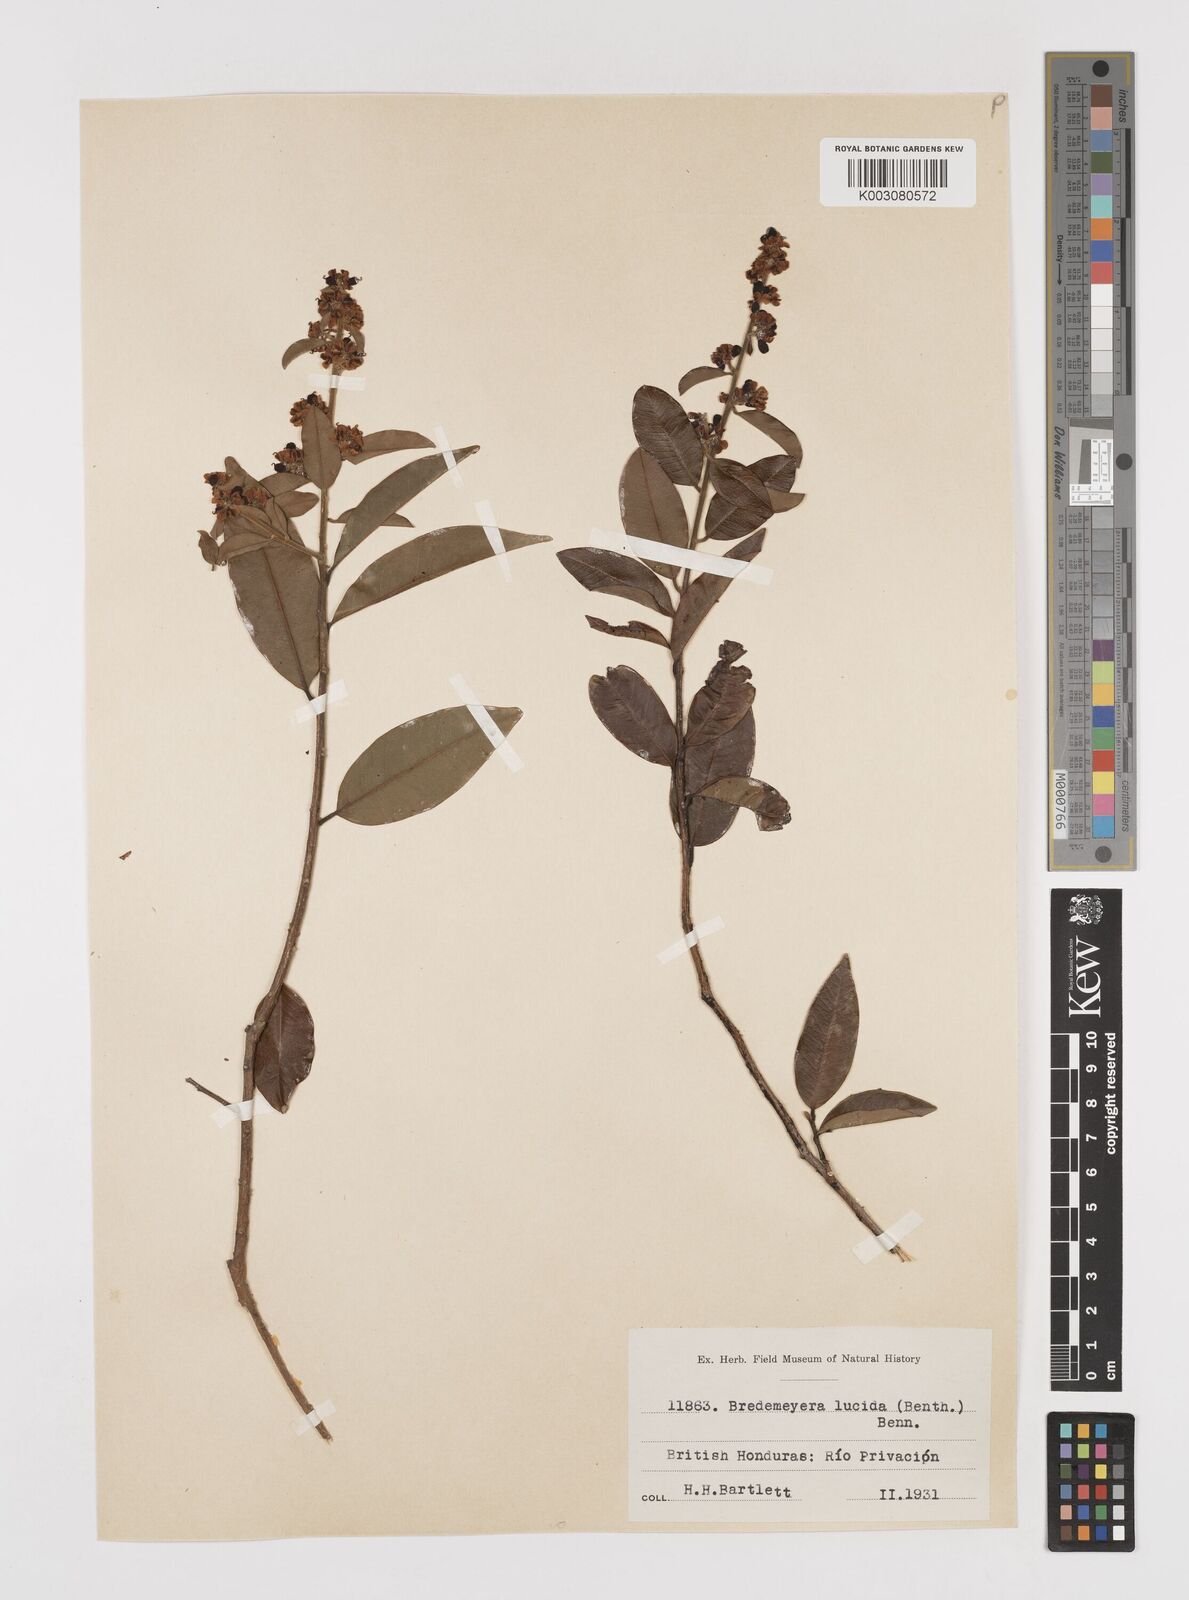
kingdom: Plantae
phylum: Tracheophyta
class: Magnoliopsida
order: Fabales
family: Polygalaceae
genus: Bredemeyera
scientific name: Bredemeyera lucida
